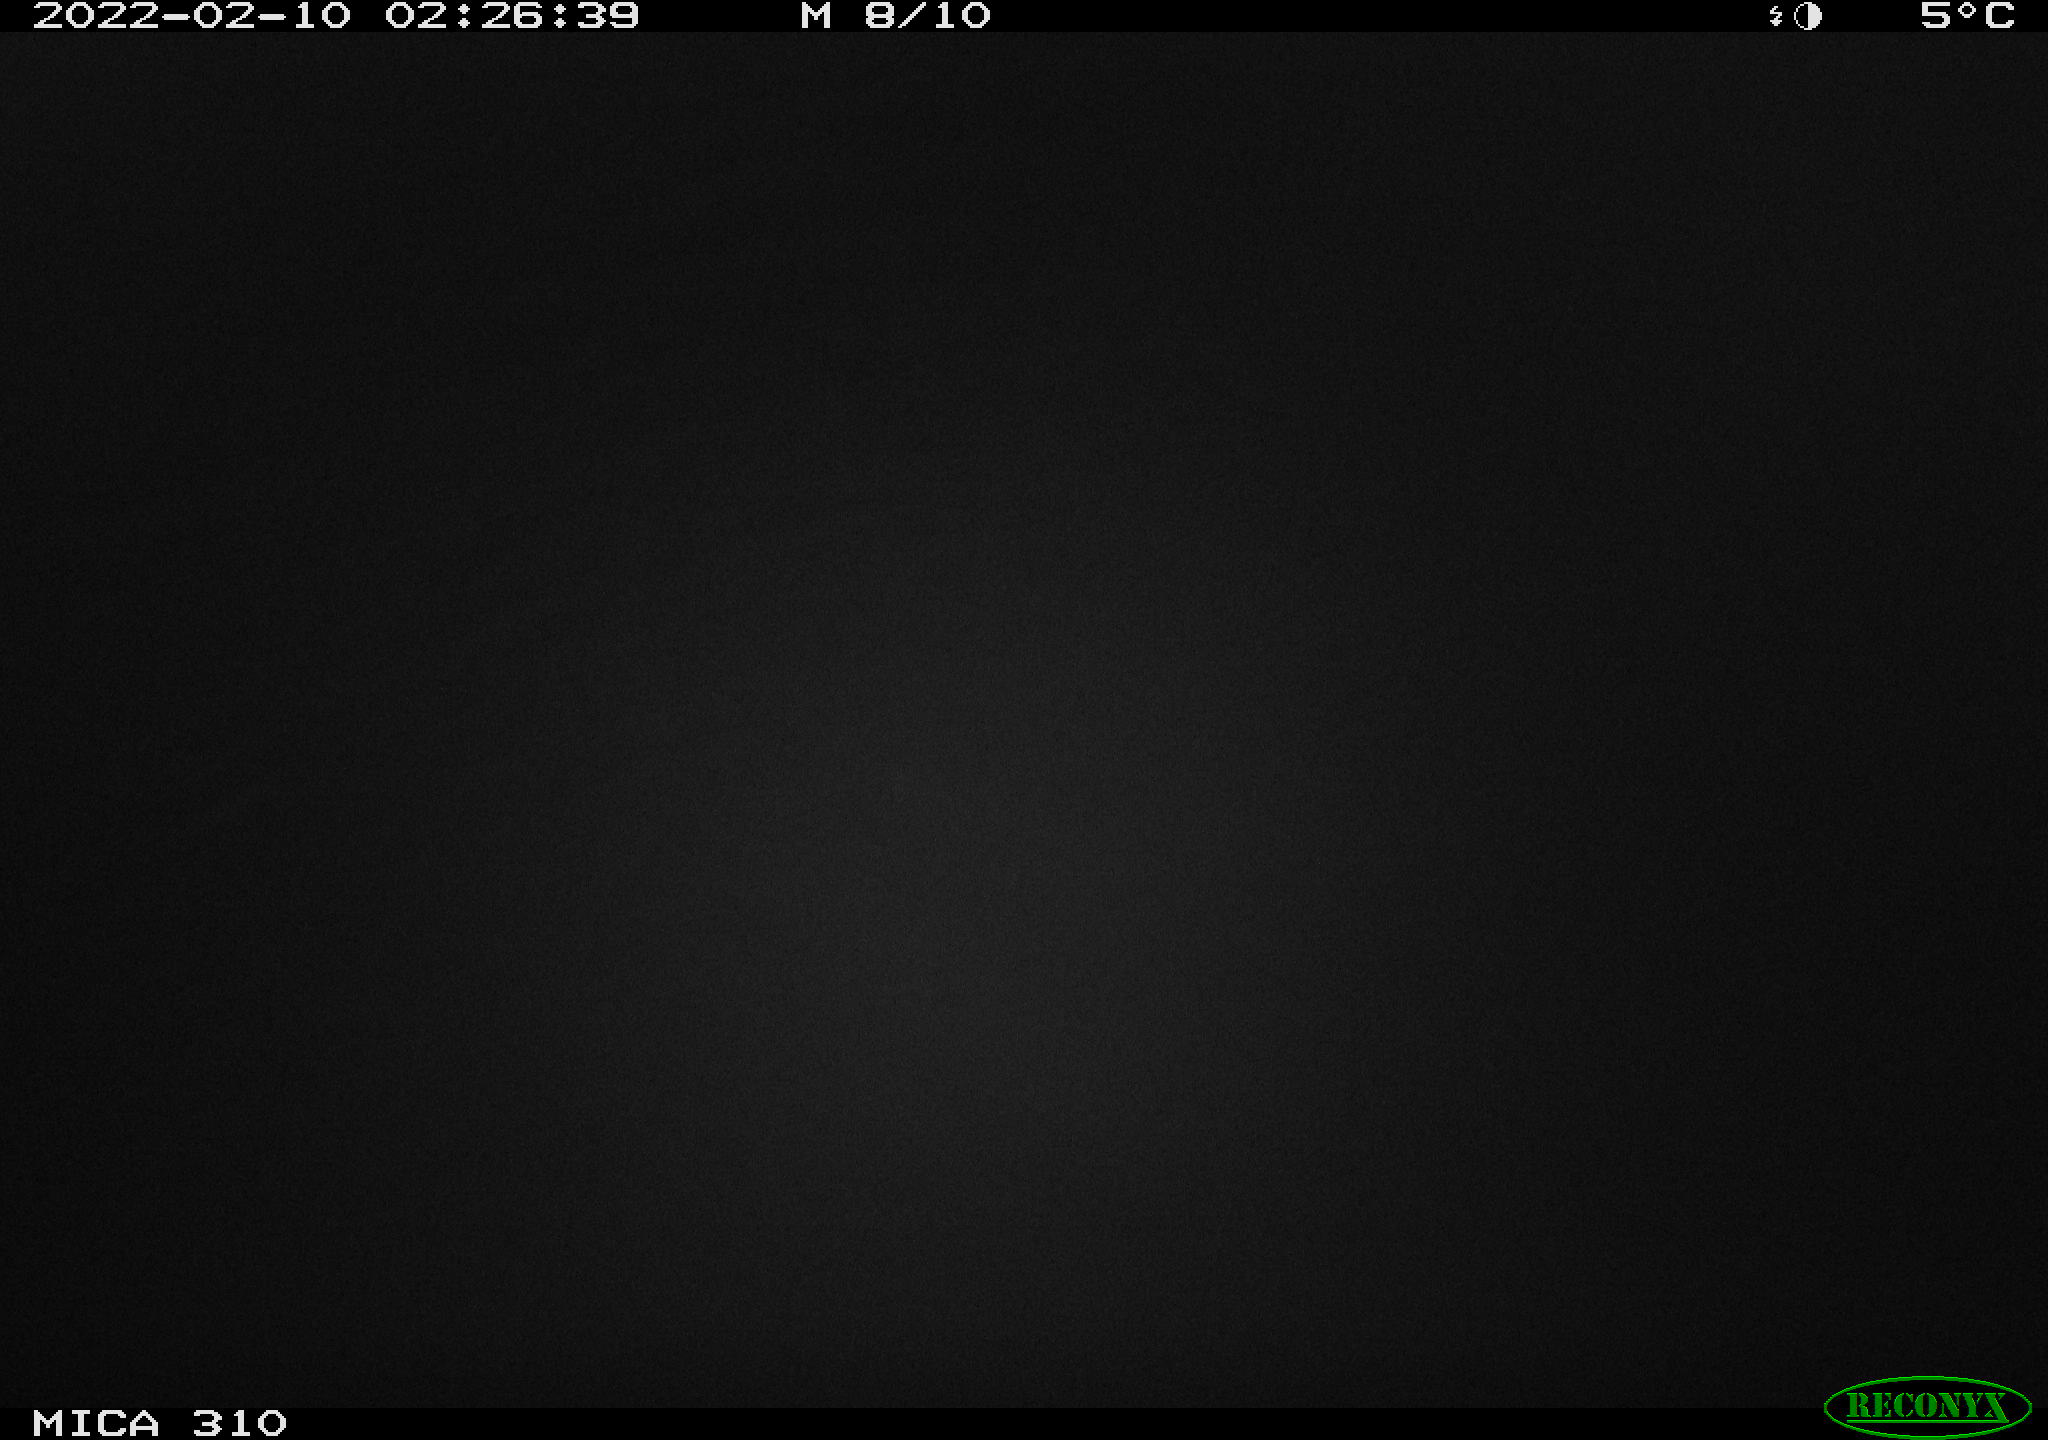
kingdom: Animalia
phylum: Chordata
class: Mammalia
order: Rodentia
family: Cricetidae
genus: Ondatra
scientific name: Ondatra zibethicus
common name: Muskrat
